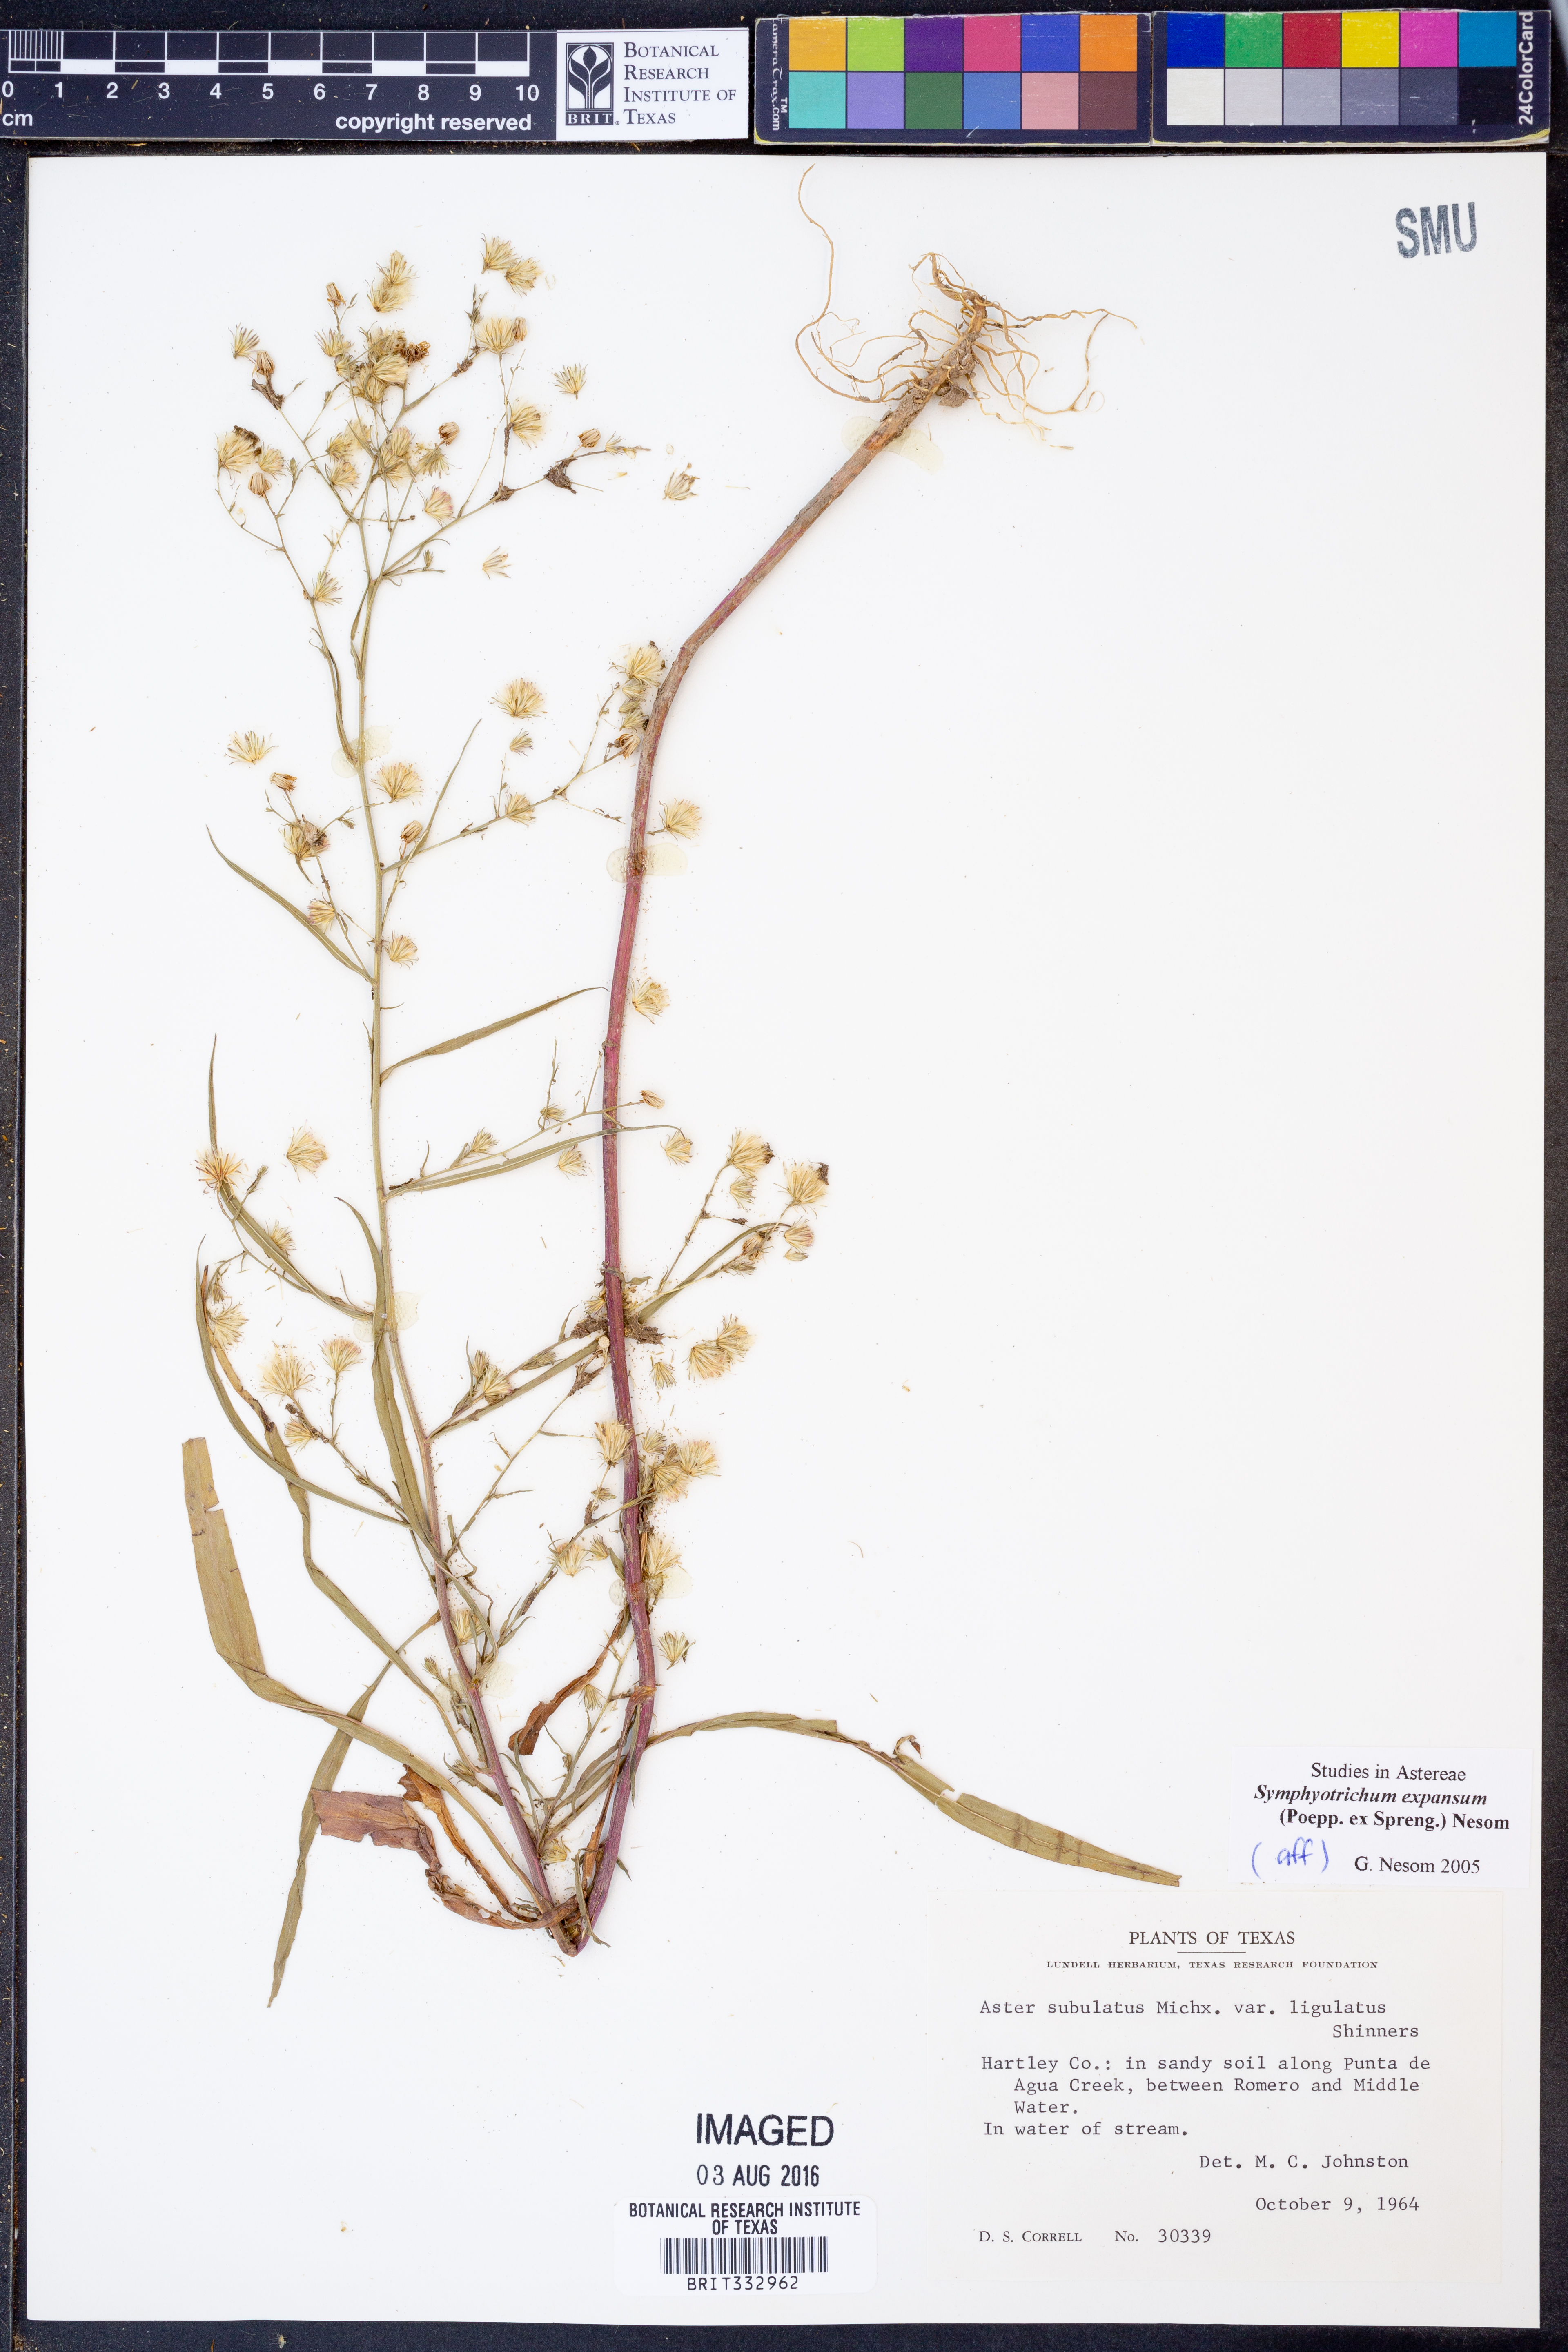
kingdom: Plantae
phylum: Tracheophyta
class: Magnoliopsida
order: Asterales
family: Asteraceae
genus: Symphyotrichum
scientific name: Symphyotrichum expansum
